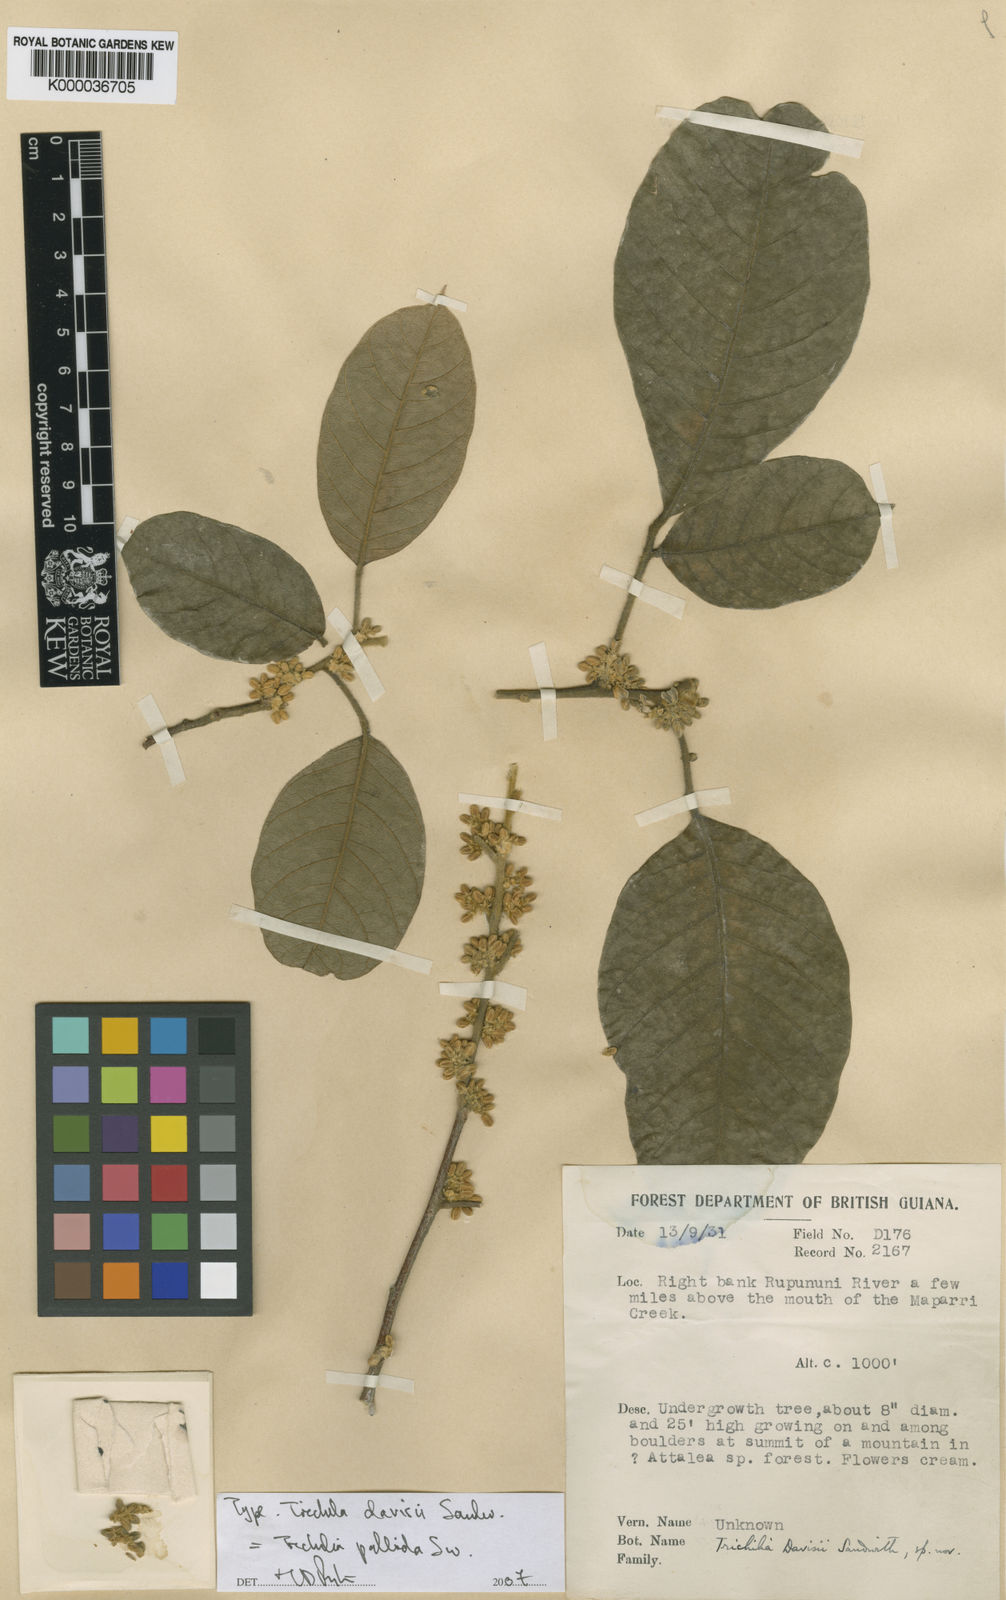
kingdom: Plantae
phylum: Tracheophyta
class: Magnoliopsida
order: Sapindales
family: Meliaceae
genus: Trichilia
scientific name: Trichilia pallida
